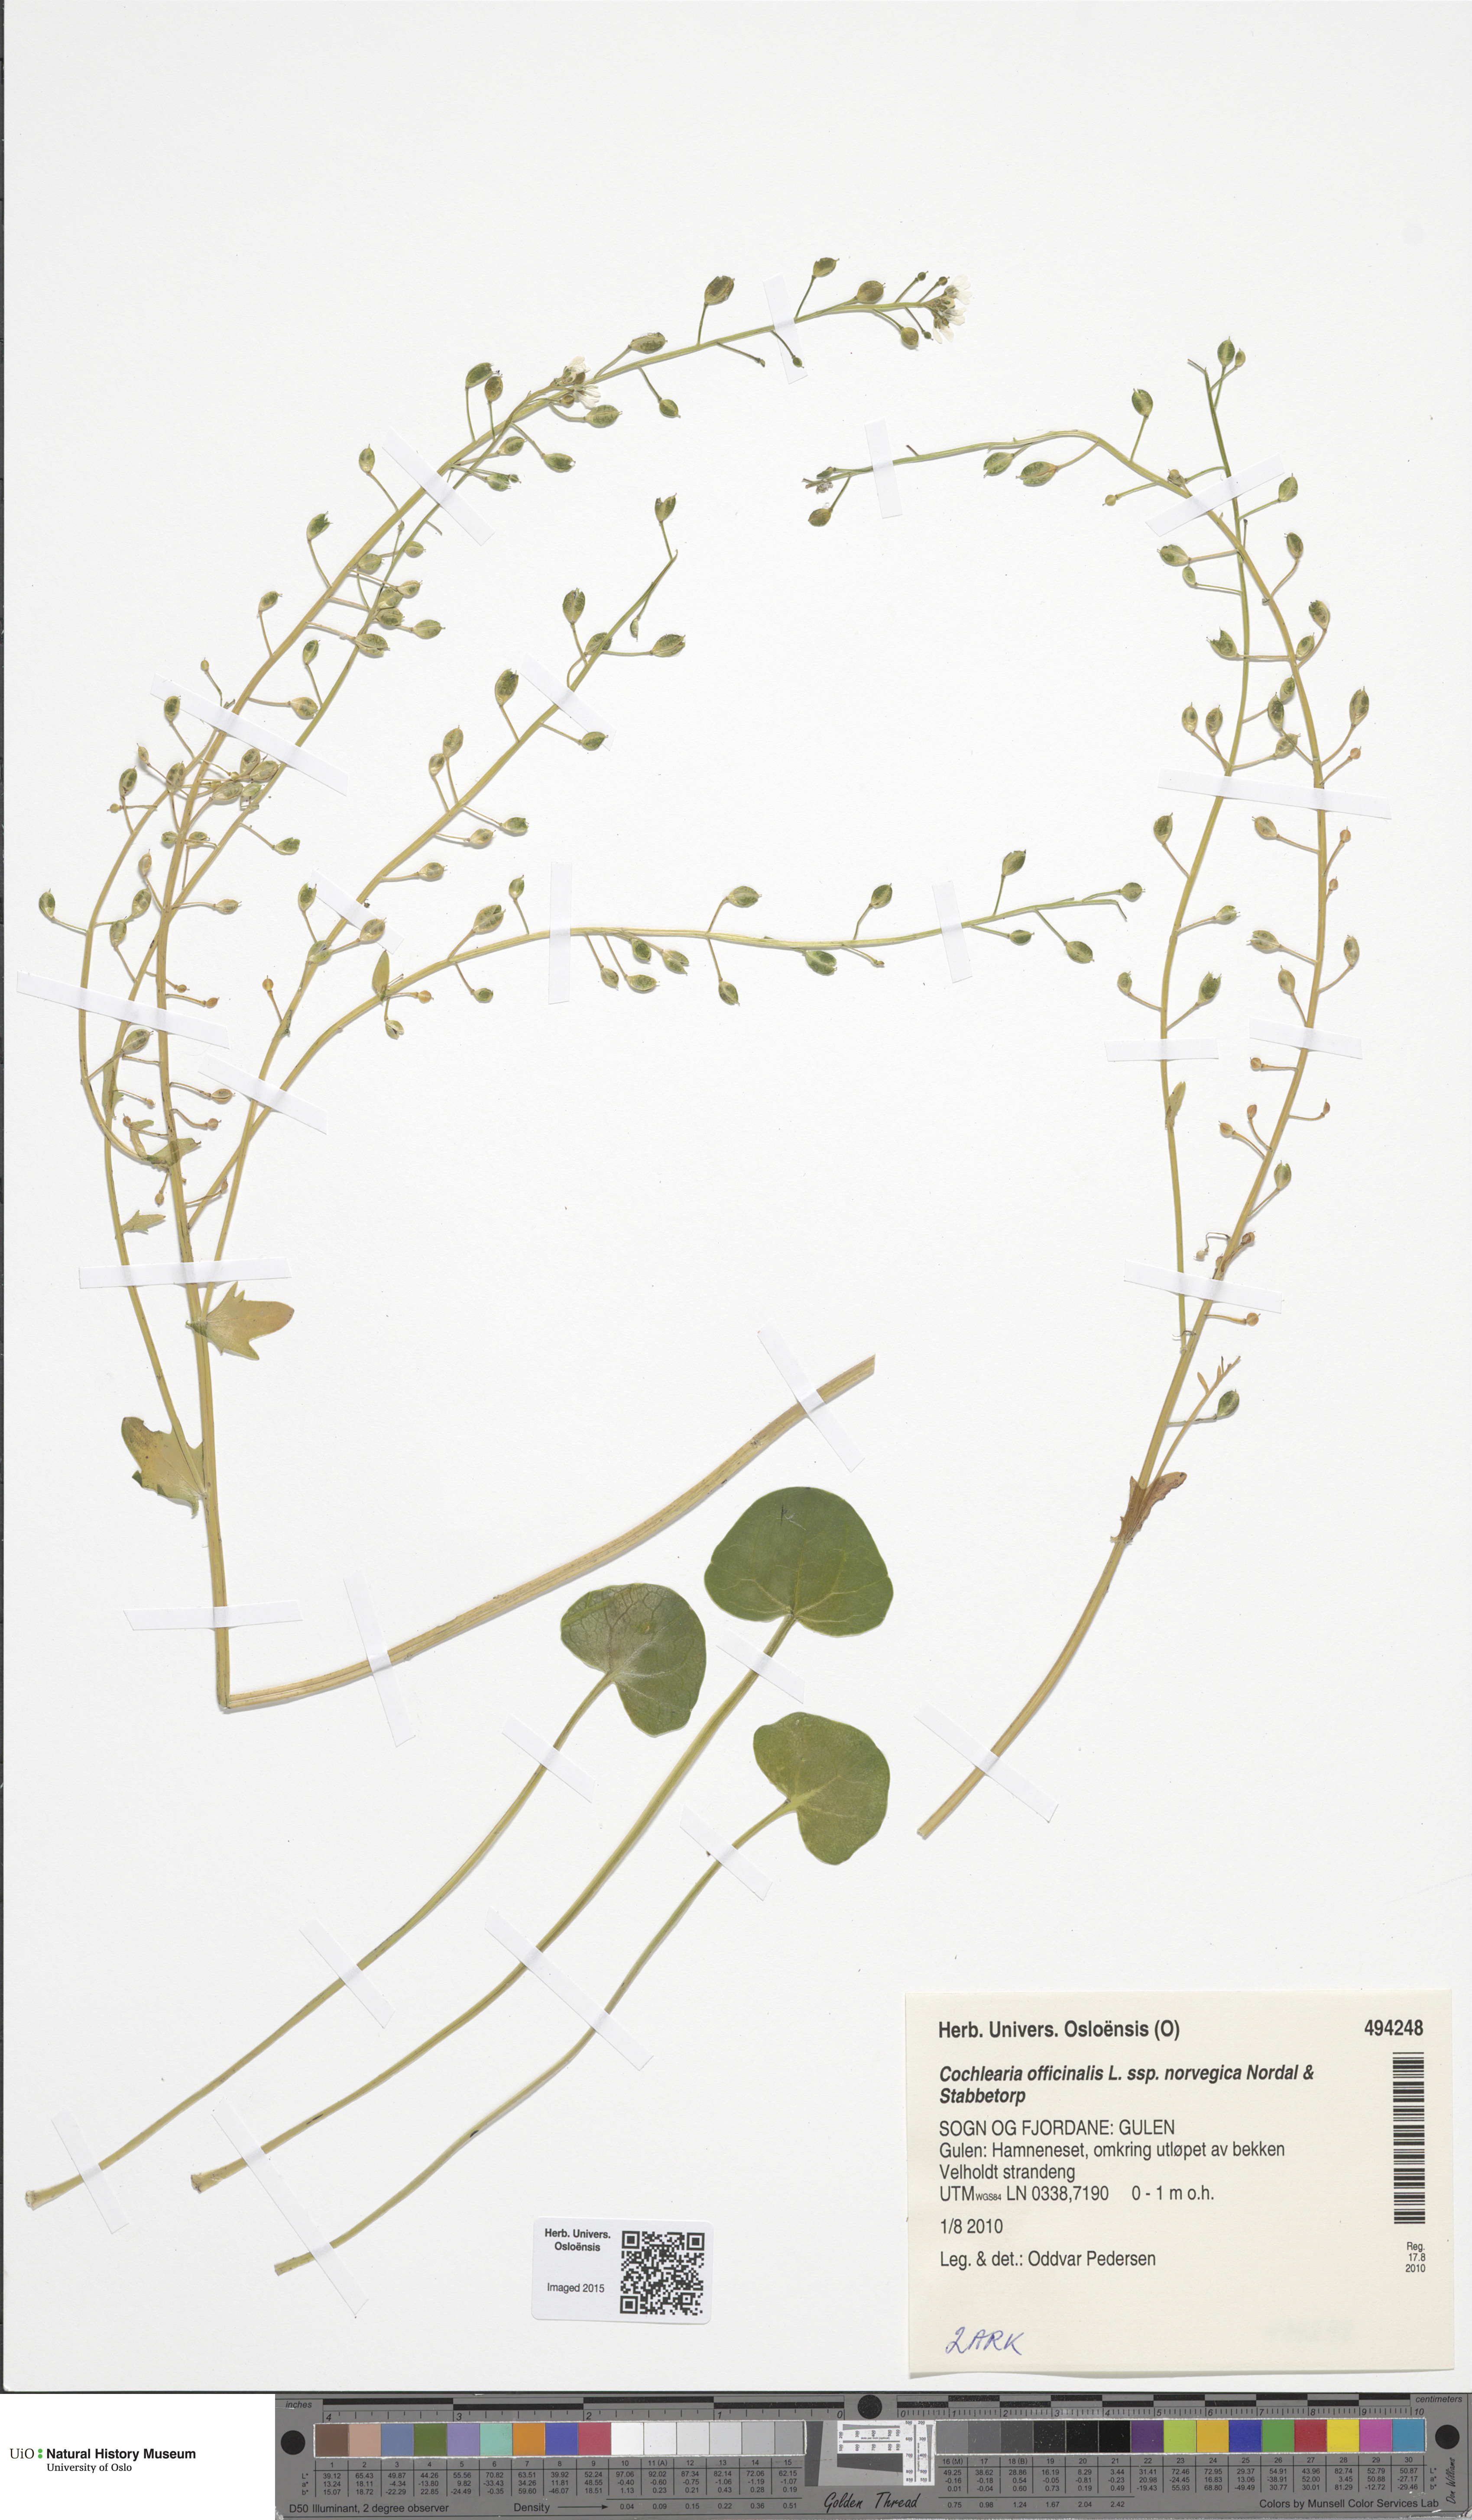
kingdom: Plantae
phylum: Tracheophyta
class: Magnoliopsida
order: Brassicales
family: Brassicaceae
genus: Cochlearia
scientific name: Cochlearia officinalis
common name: Scurvy-grass
